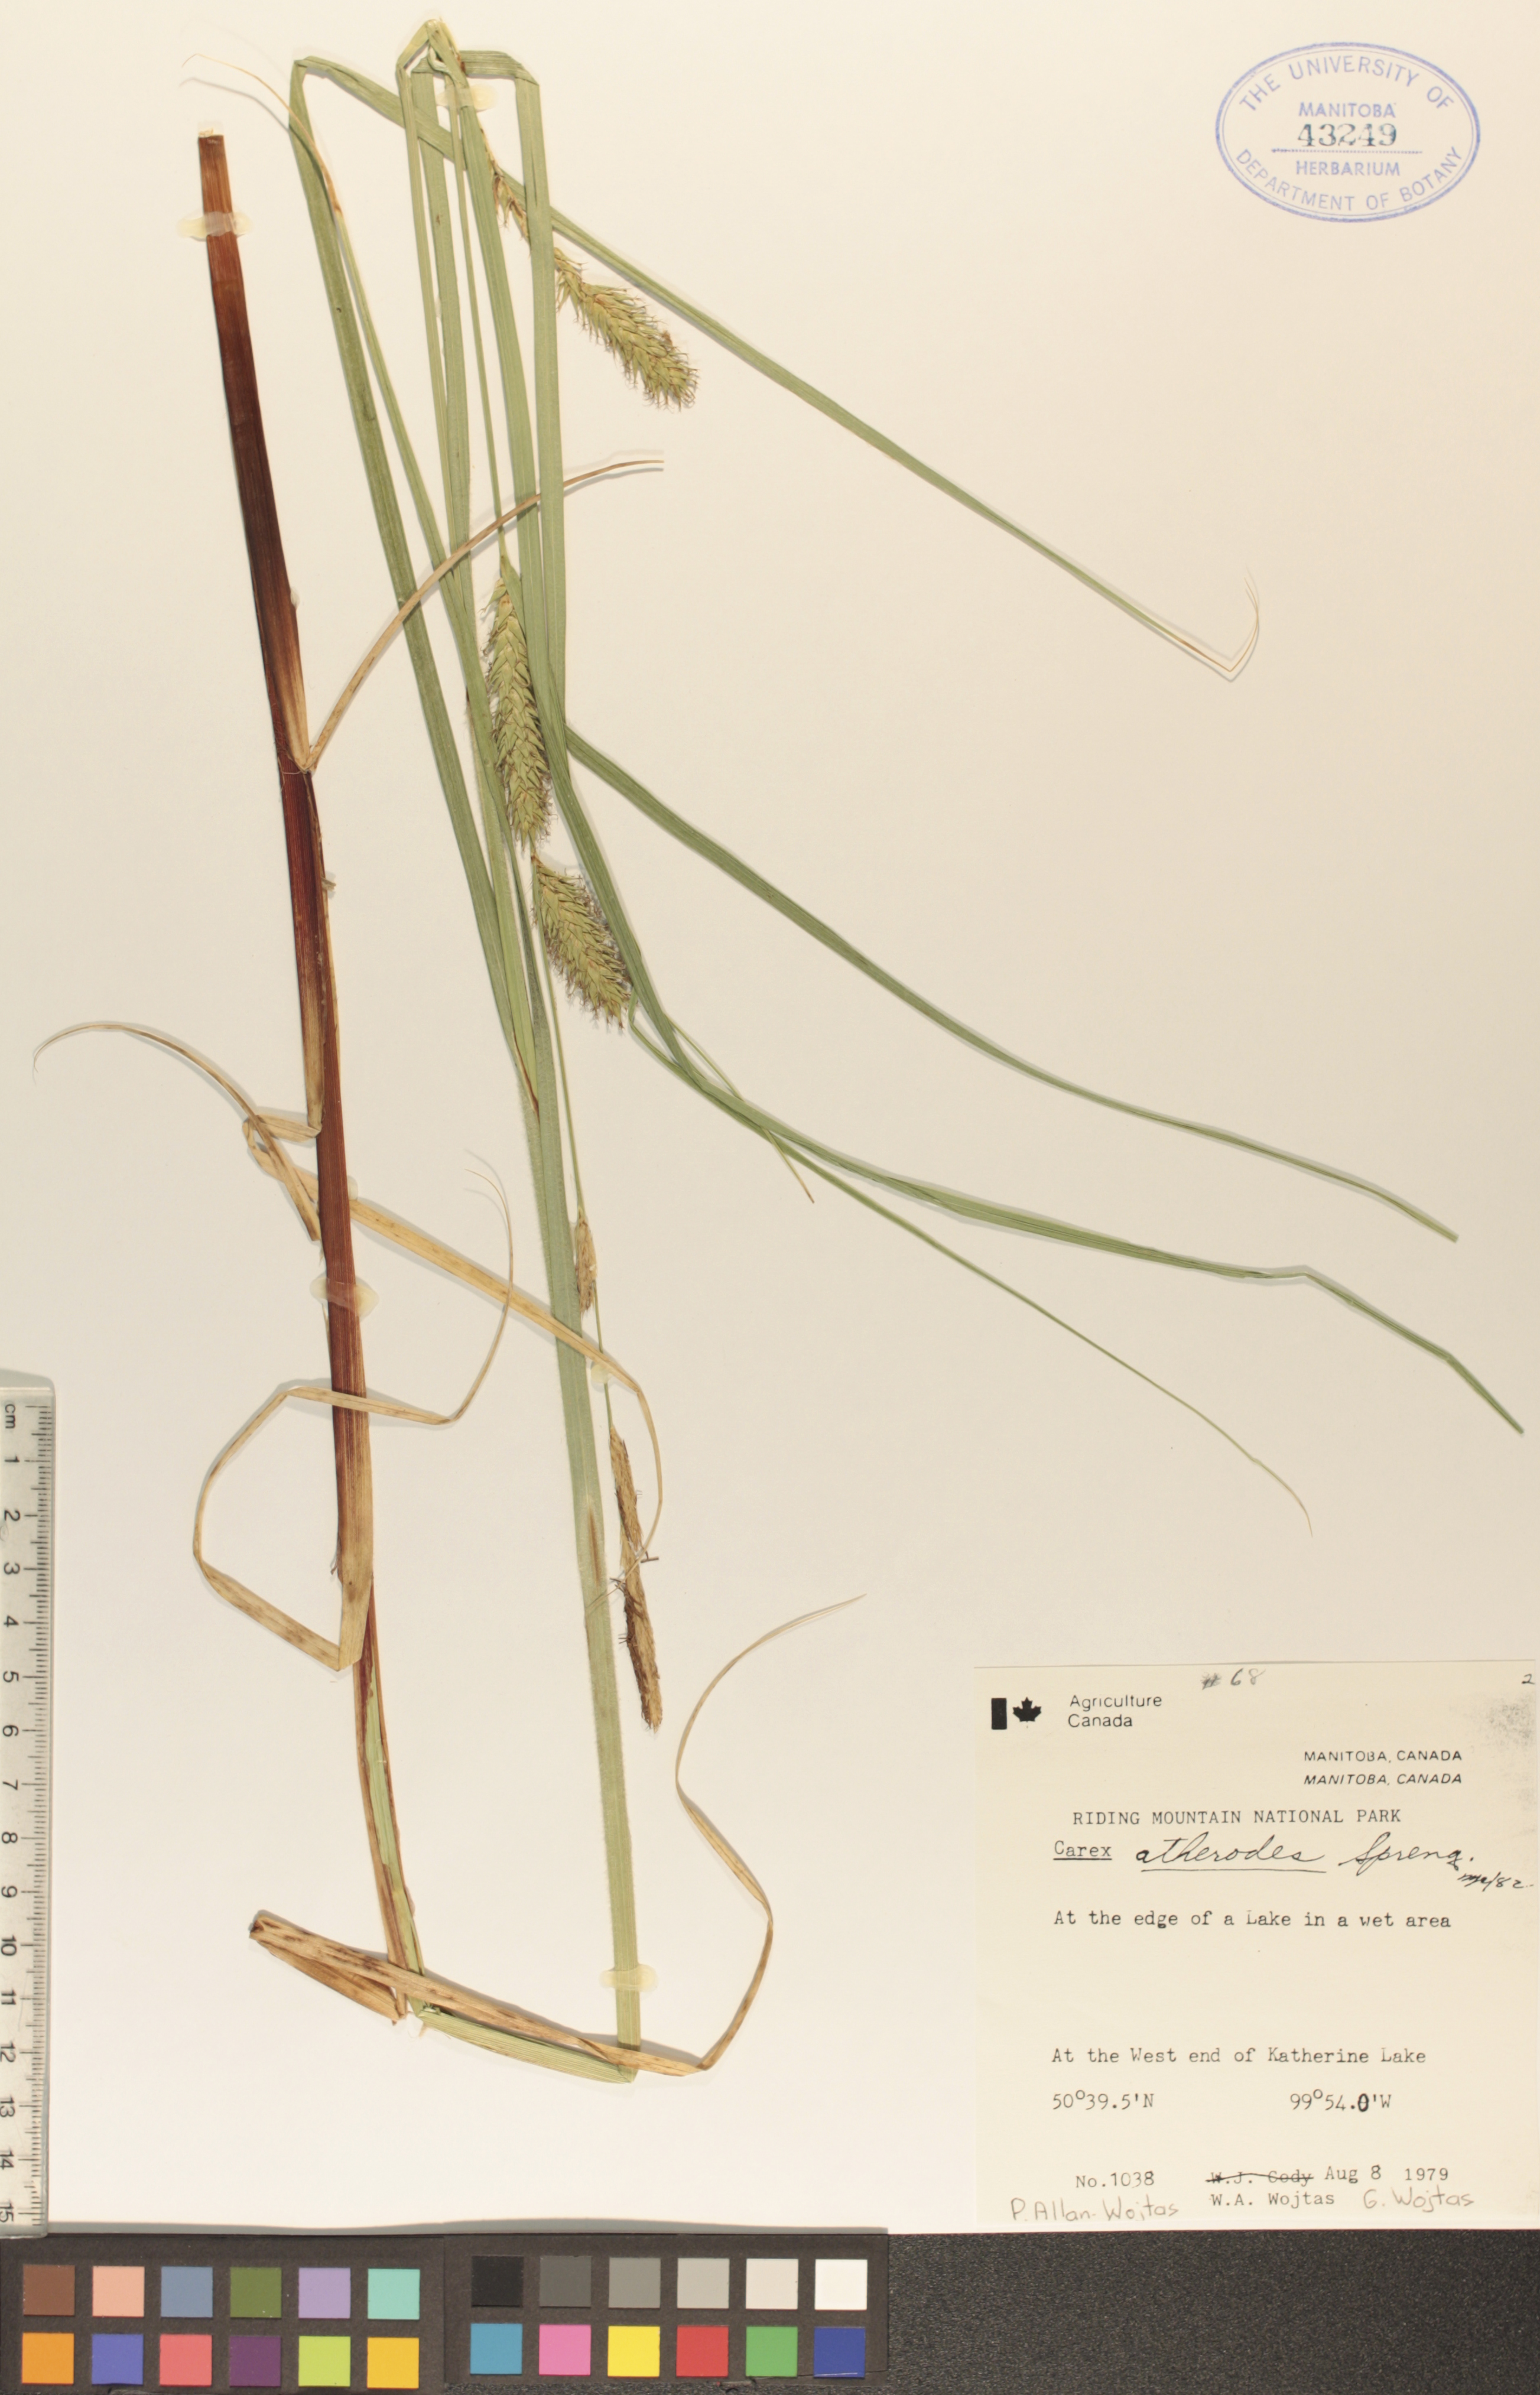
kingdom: Plantae
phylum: Tracheophyta
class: Liliopsida
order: Poales
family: Cyperaceae
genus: Carex
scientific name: Carex atherodes
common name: Wheat sedge
